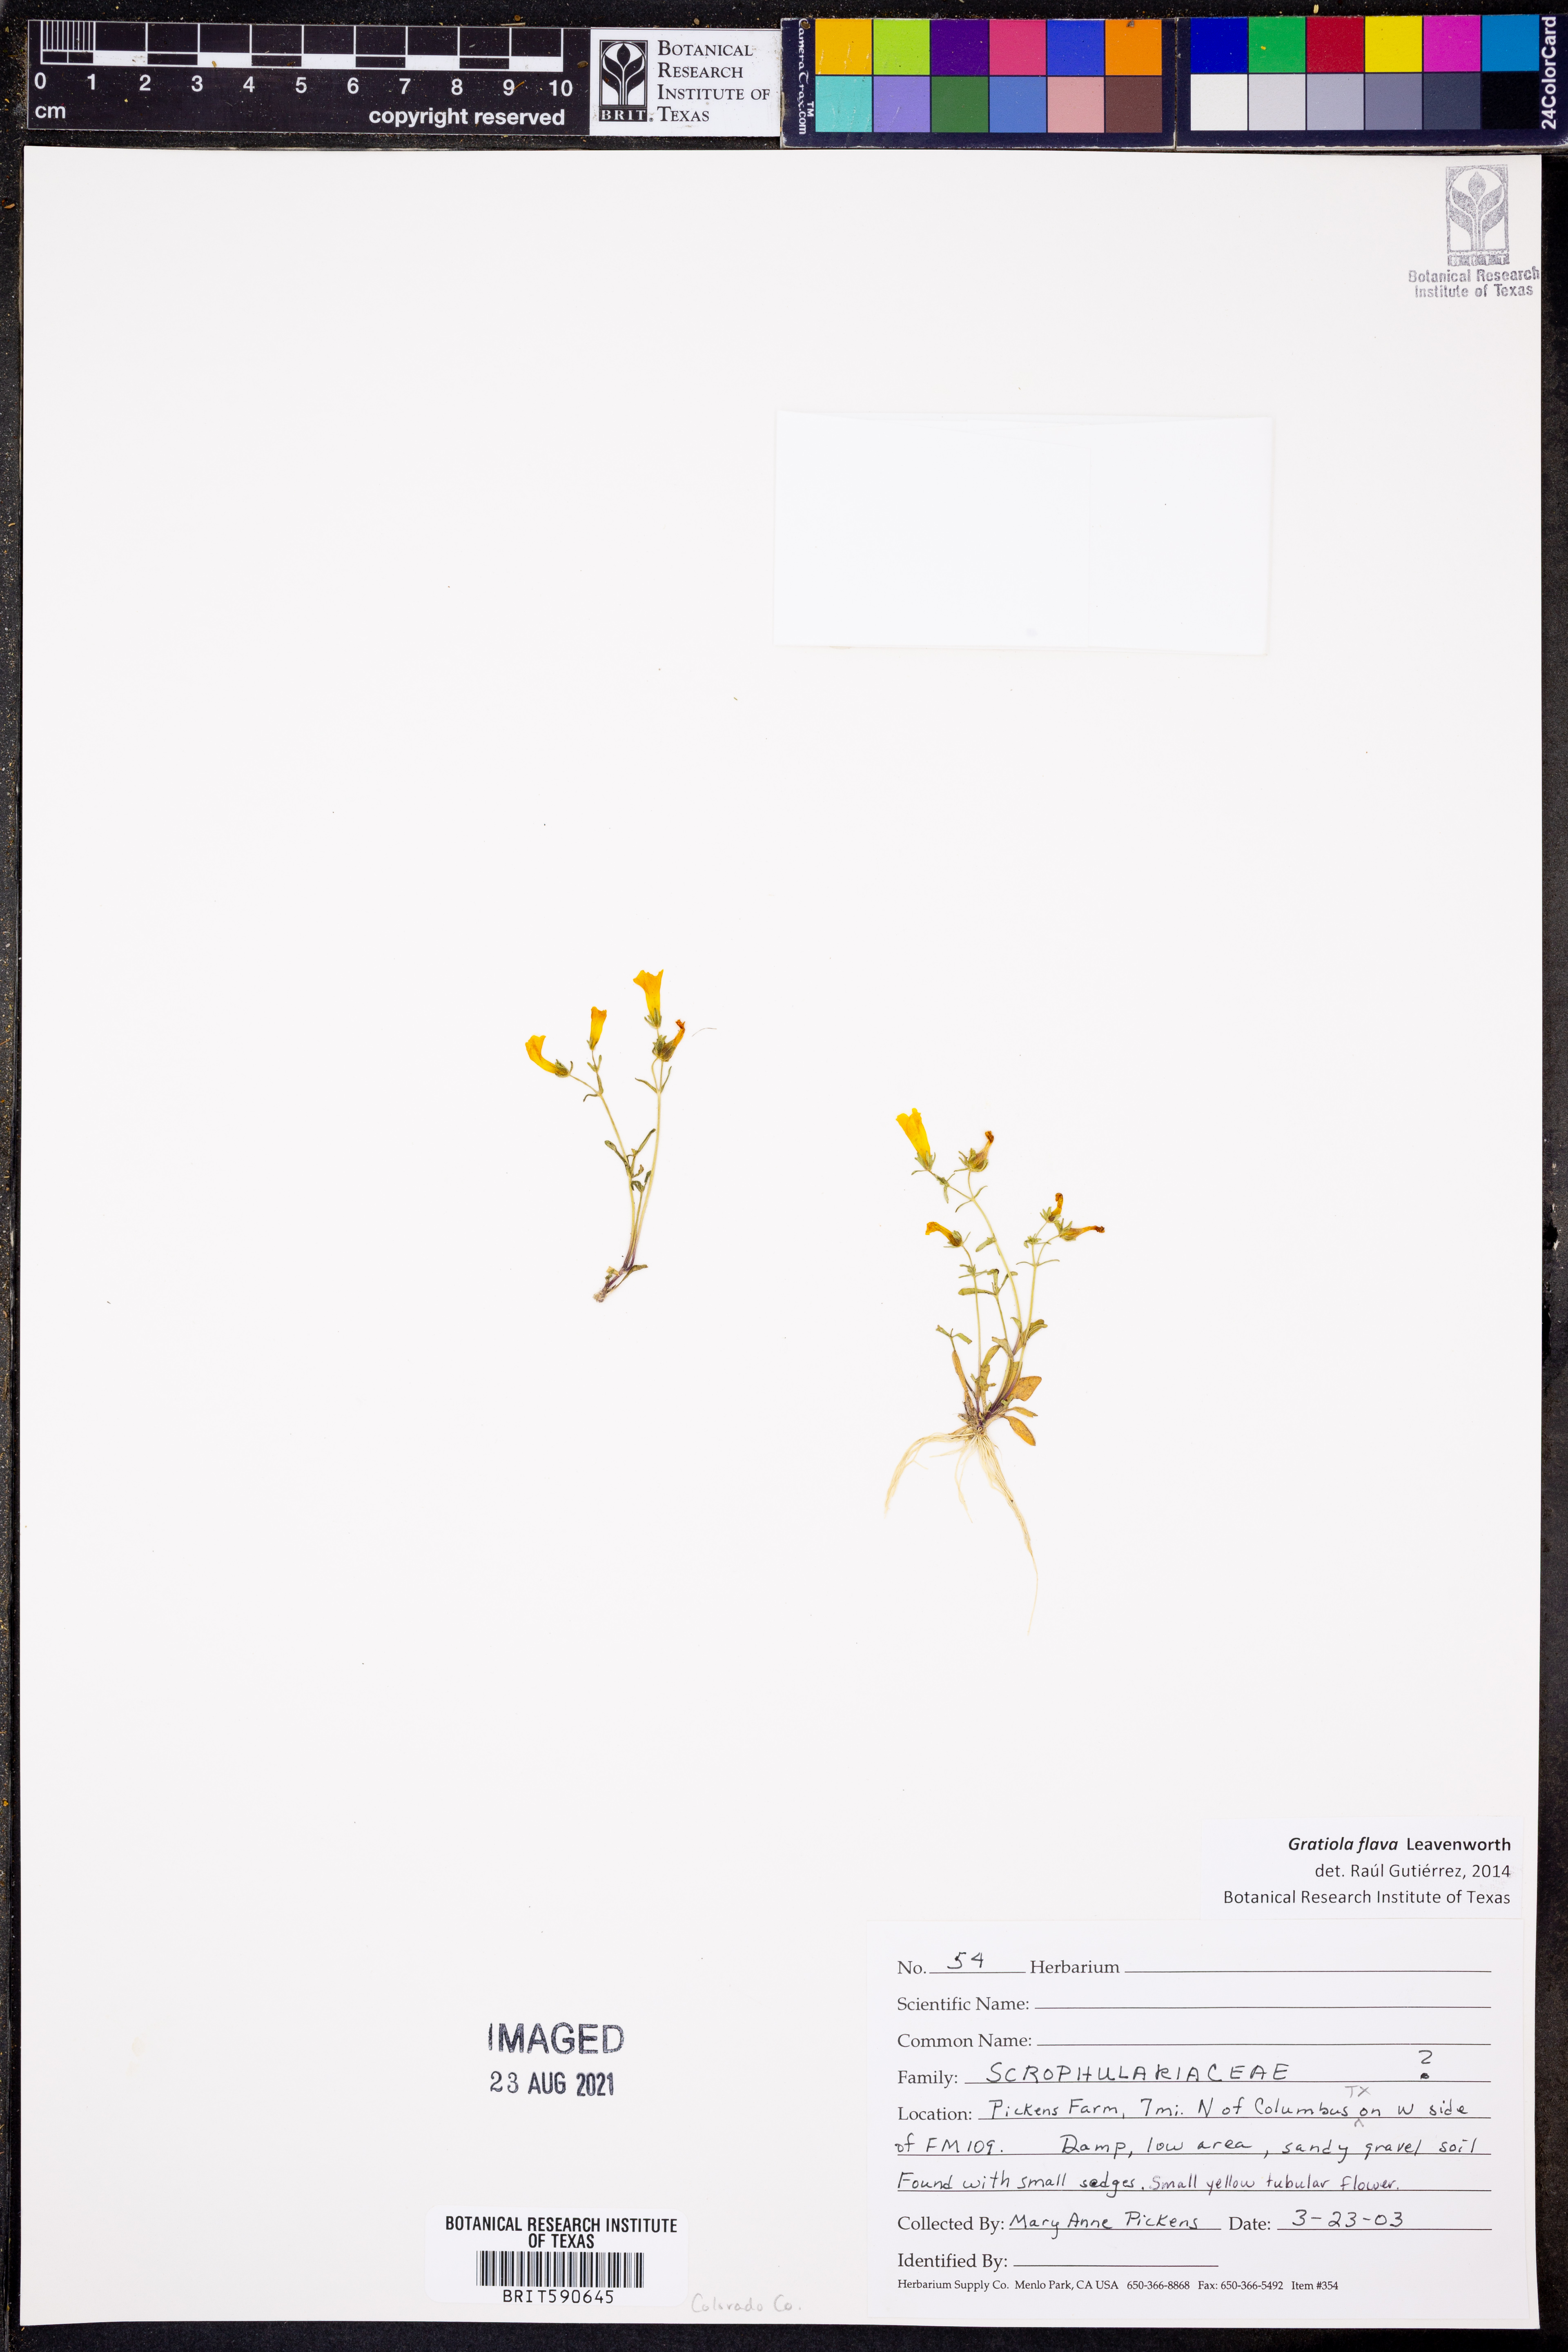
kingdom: Plantae
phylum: Tracheophyta
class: Magnoliopsida
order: Lamiales
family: Plantaginaceae
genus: Gratiola
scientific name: Gratiola flava
